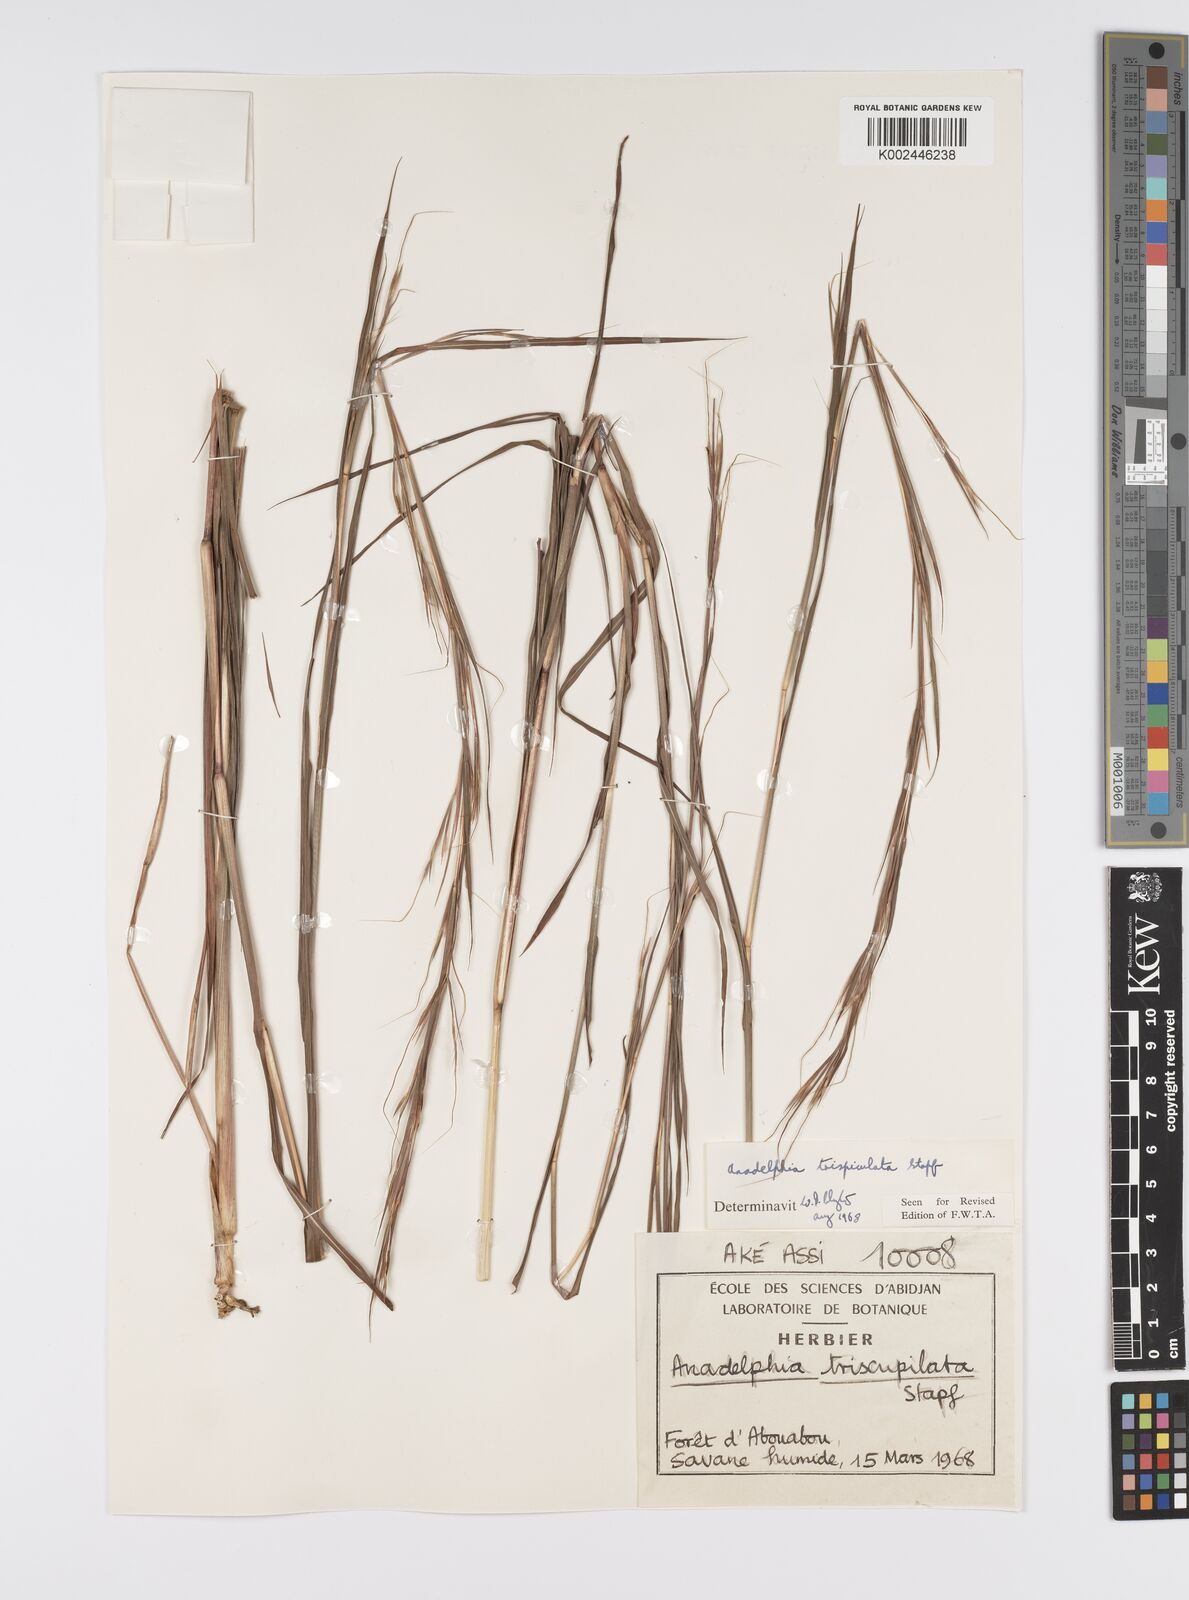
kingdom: Plantae
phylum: Tracheophyta
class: Liliopsida
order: Poales
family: Poaceae
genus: Anadelphia
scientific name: Anadelphia trispiculata
